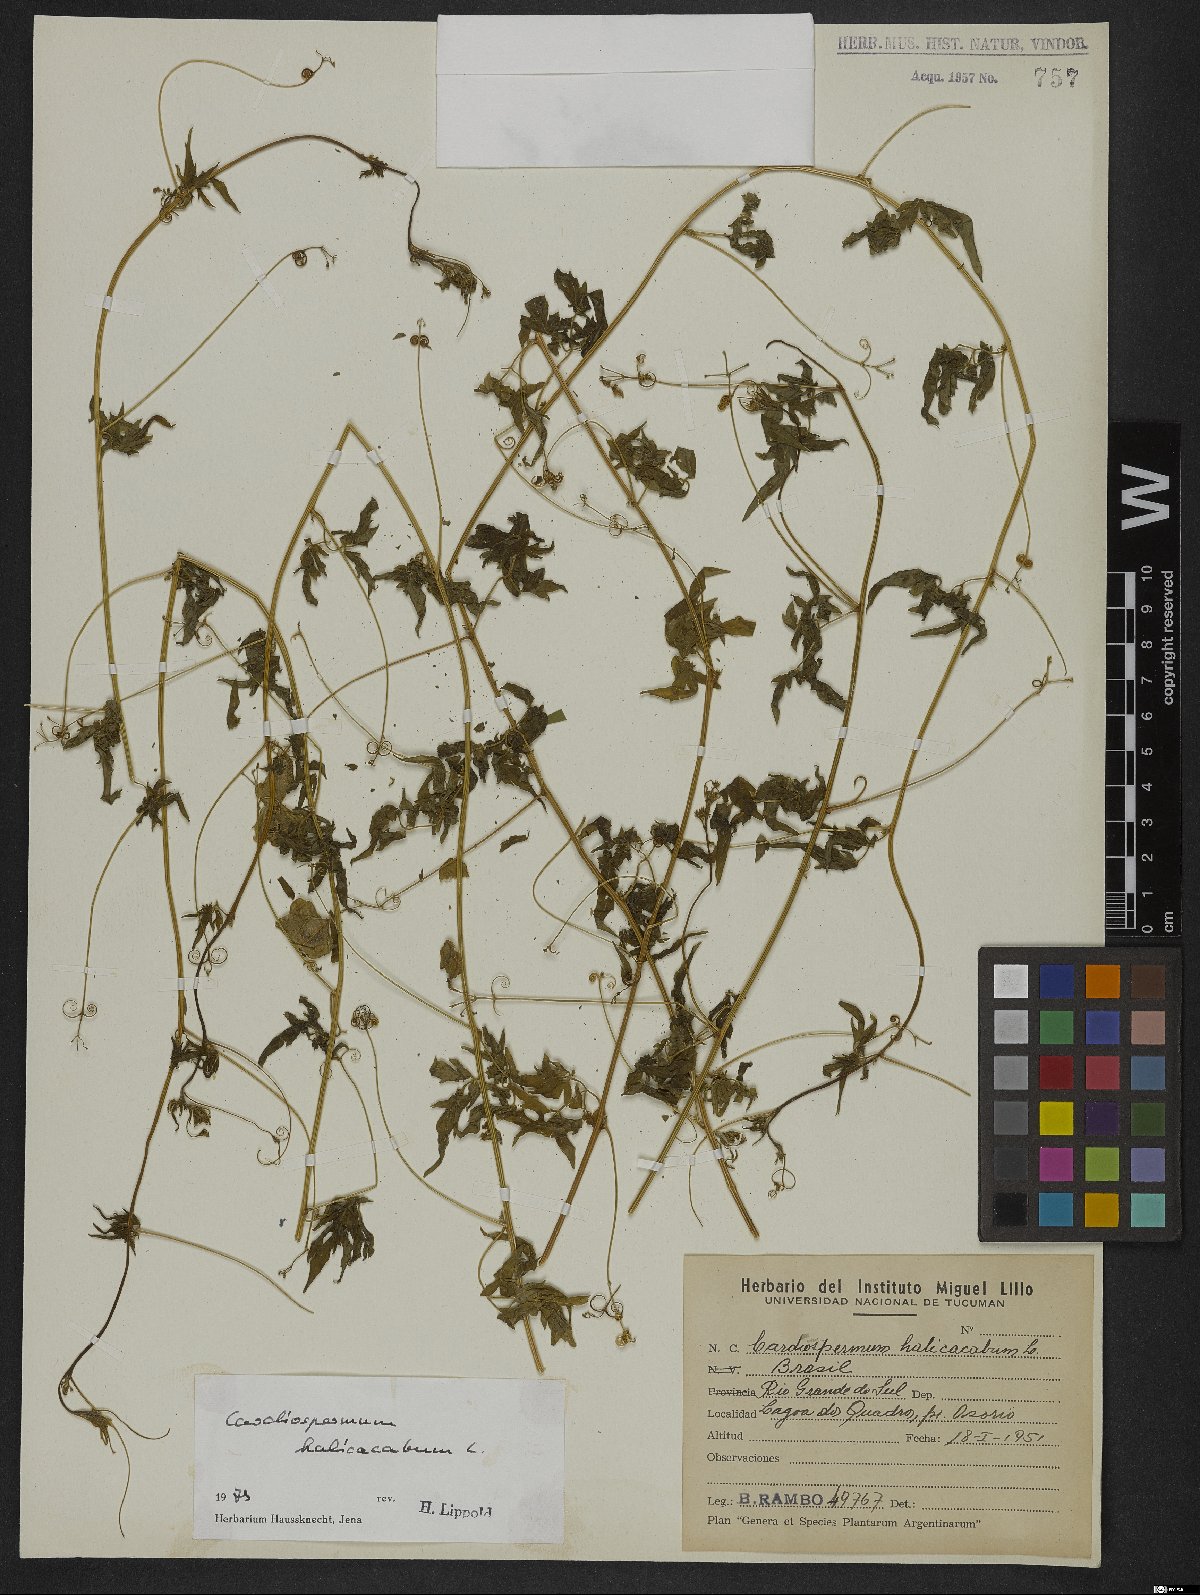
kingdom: Plantae
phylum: Tracheophyta
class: Magnoliopsida
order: Sapindales
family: Sapindaceae
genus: Cardiospermum
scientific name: Cardiospermum halicacabum
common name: Balloon vine
